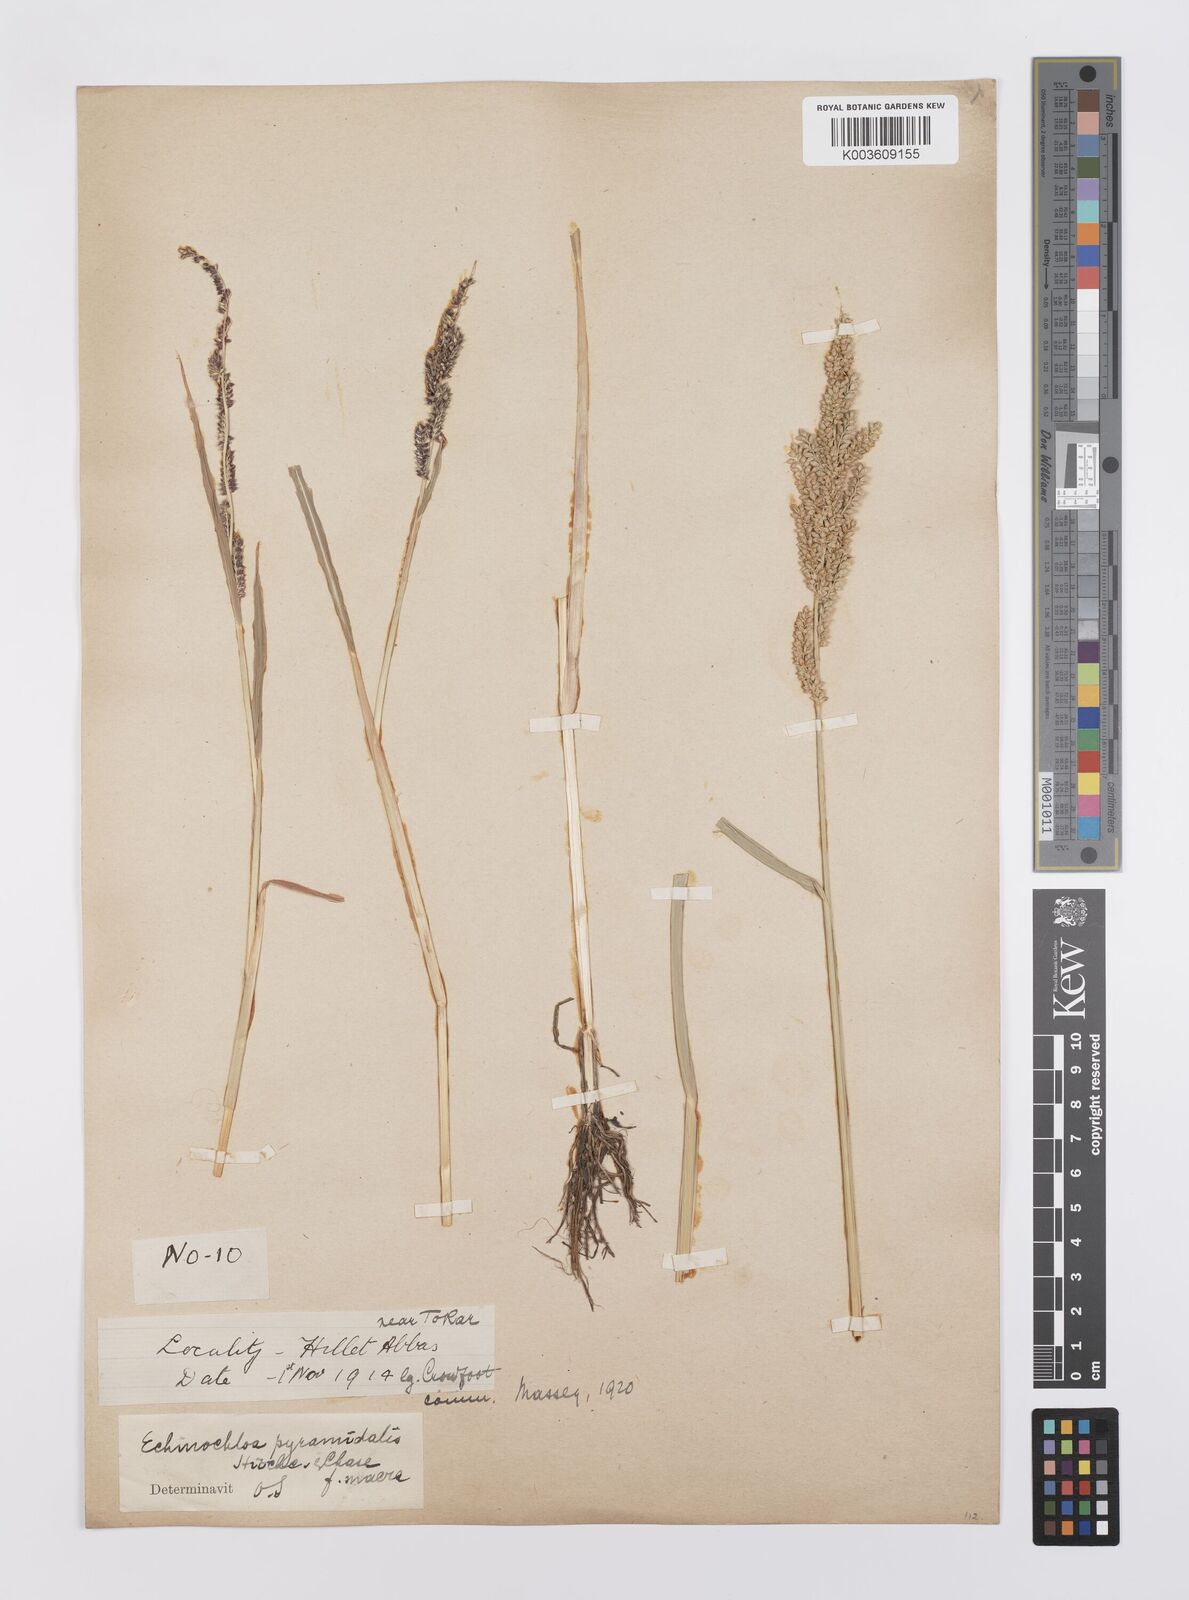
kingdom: Plantae
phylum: Tracheophyta
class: Liliopsida
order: Poales
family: Poaceae
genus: Echinochloa
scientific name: Echinochloa pyramidalis
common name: Antelope grass
